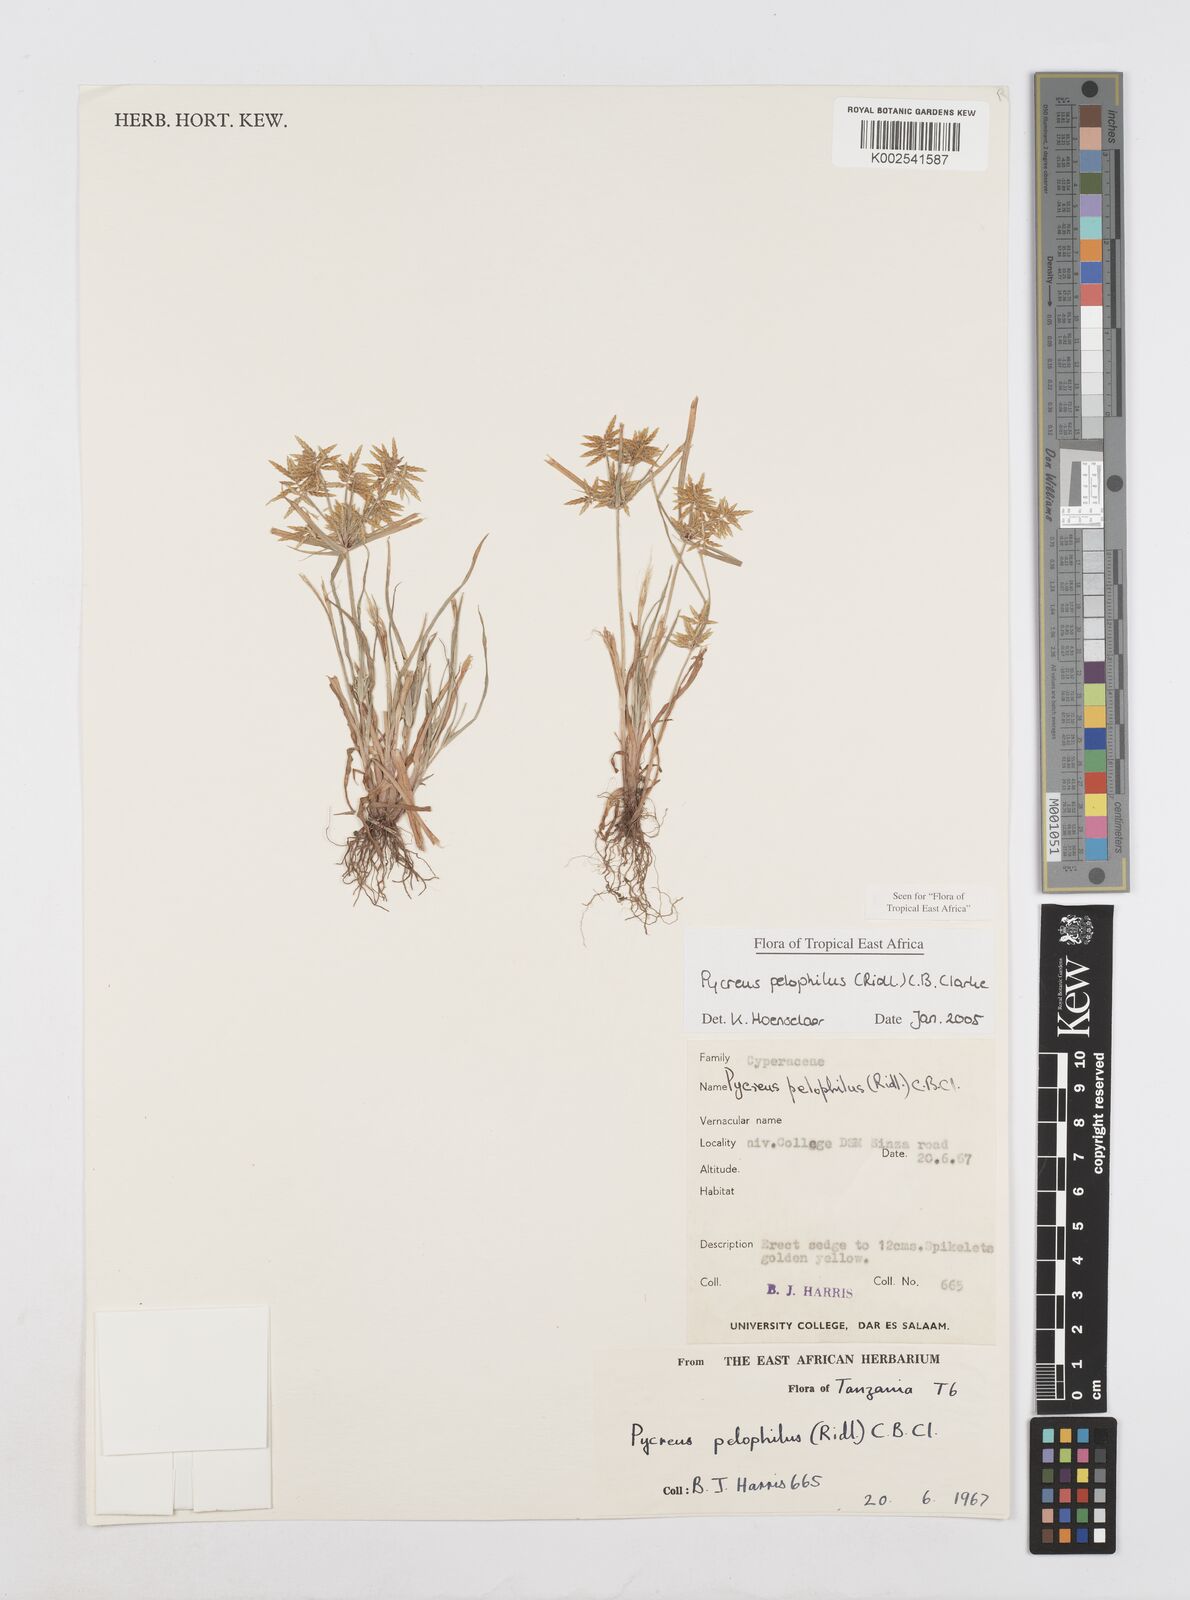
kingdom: Plantae
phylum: Tracheophyta
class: Liliopsida
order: Poales
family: Cyperaceae
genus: Cyperus
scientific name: Cyperus pelophilus
